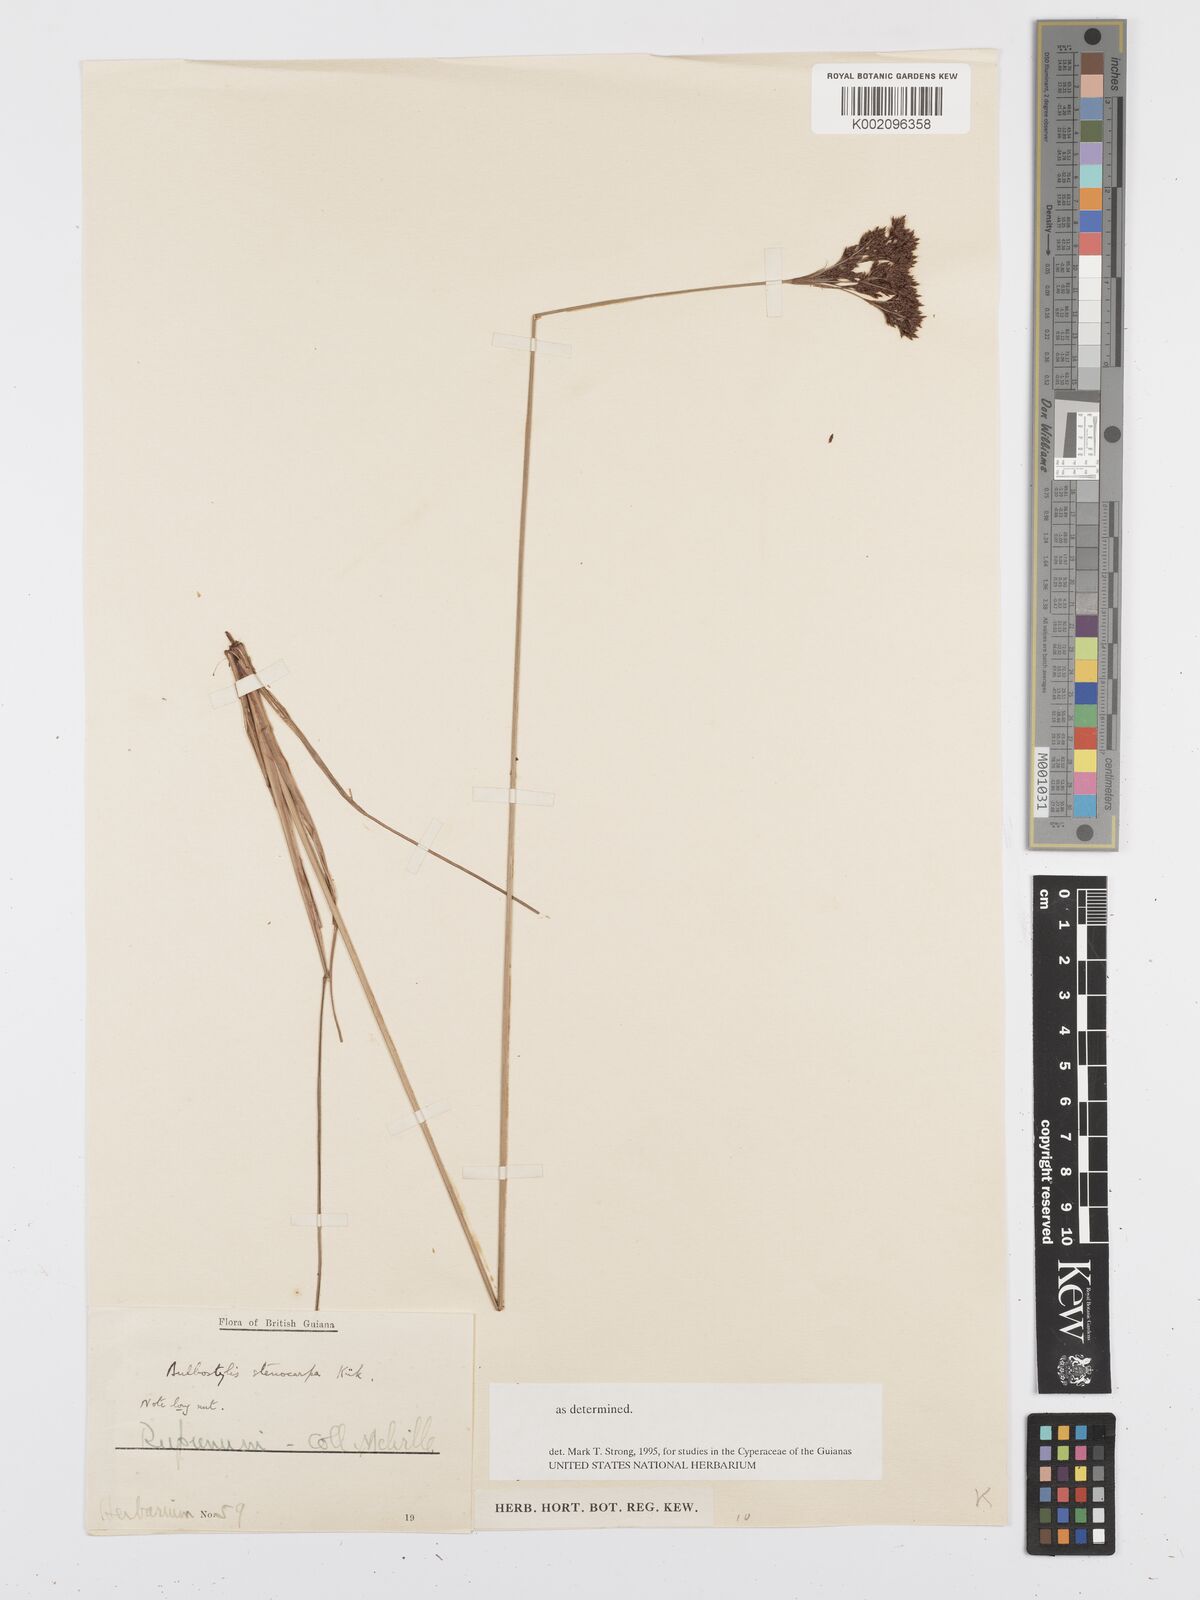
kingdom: Plantae
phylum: Tracheophyta
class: Liliopsida
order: Poales
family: Cyperaceae
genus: Bulbostylis
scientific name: Bulbostylis surinamensis
